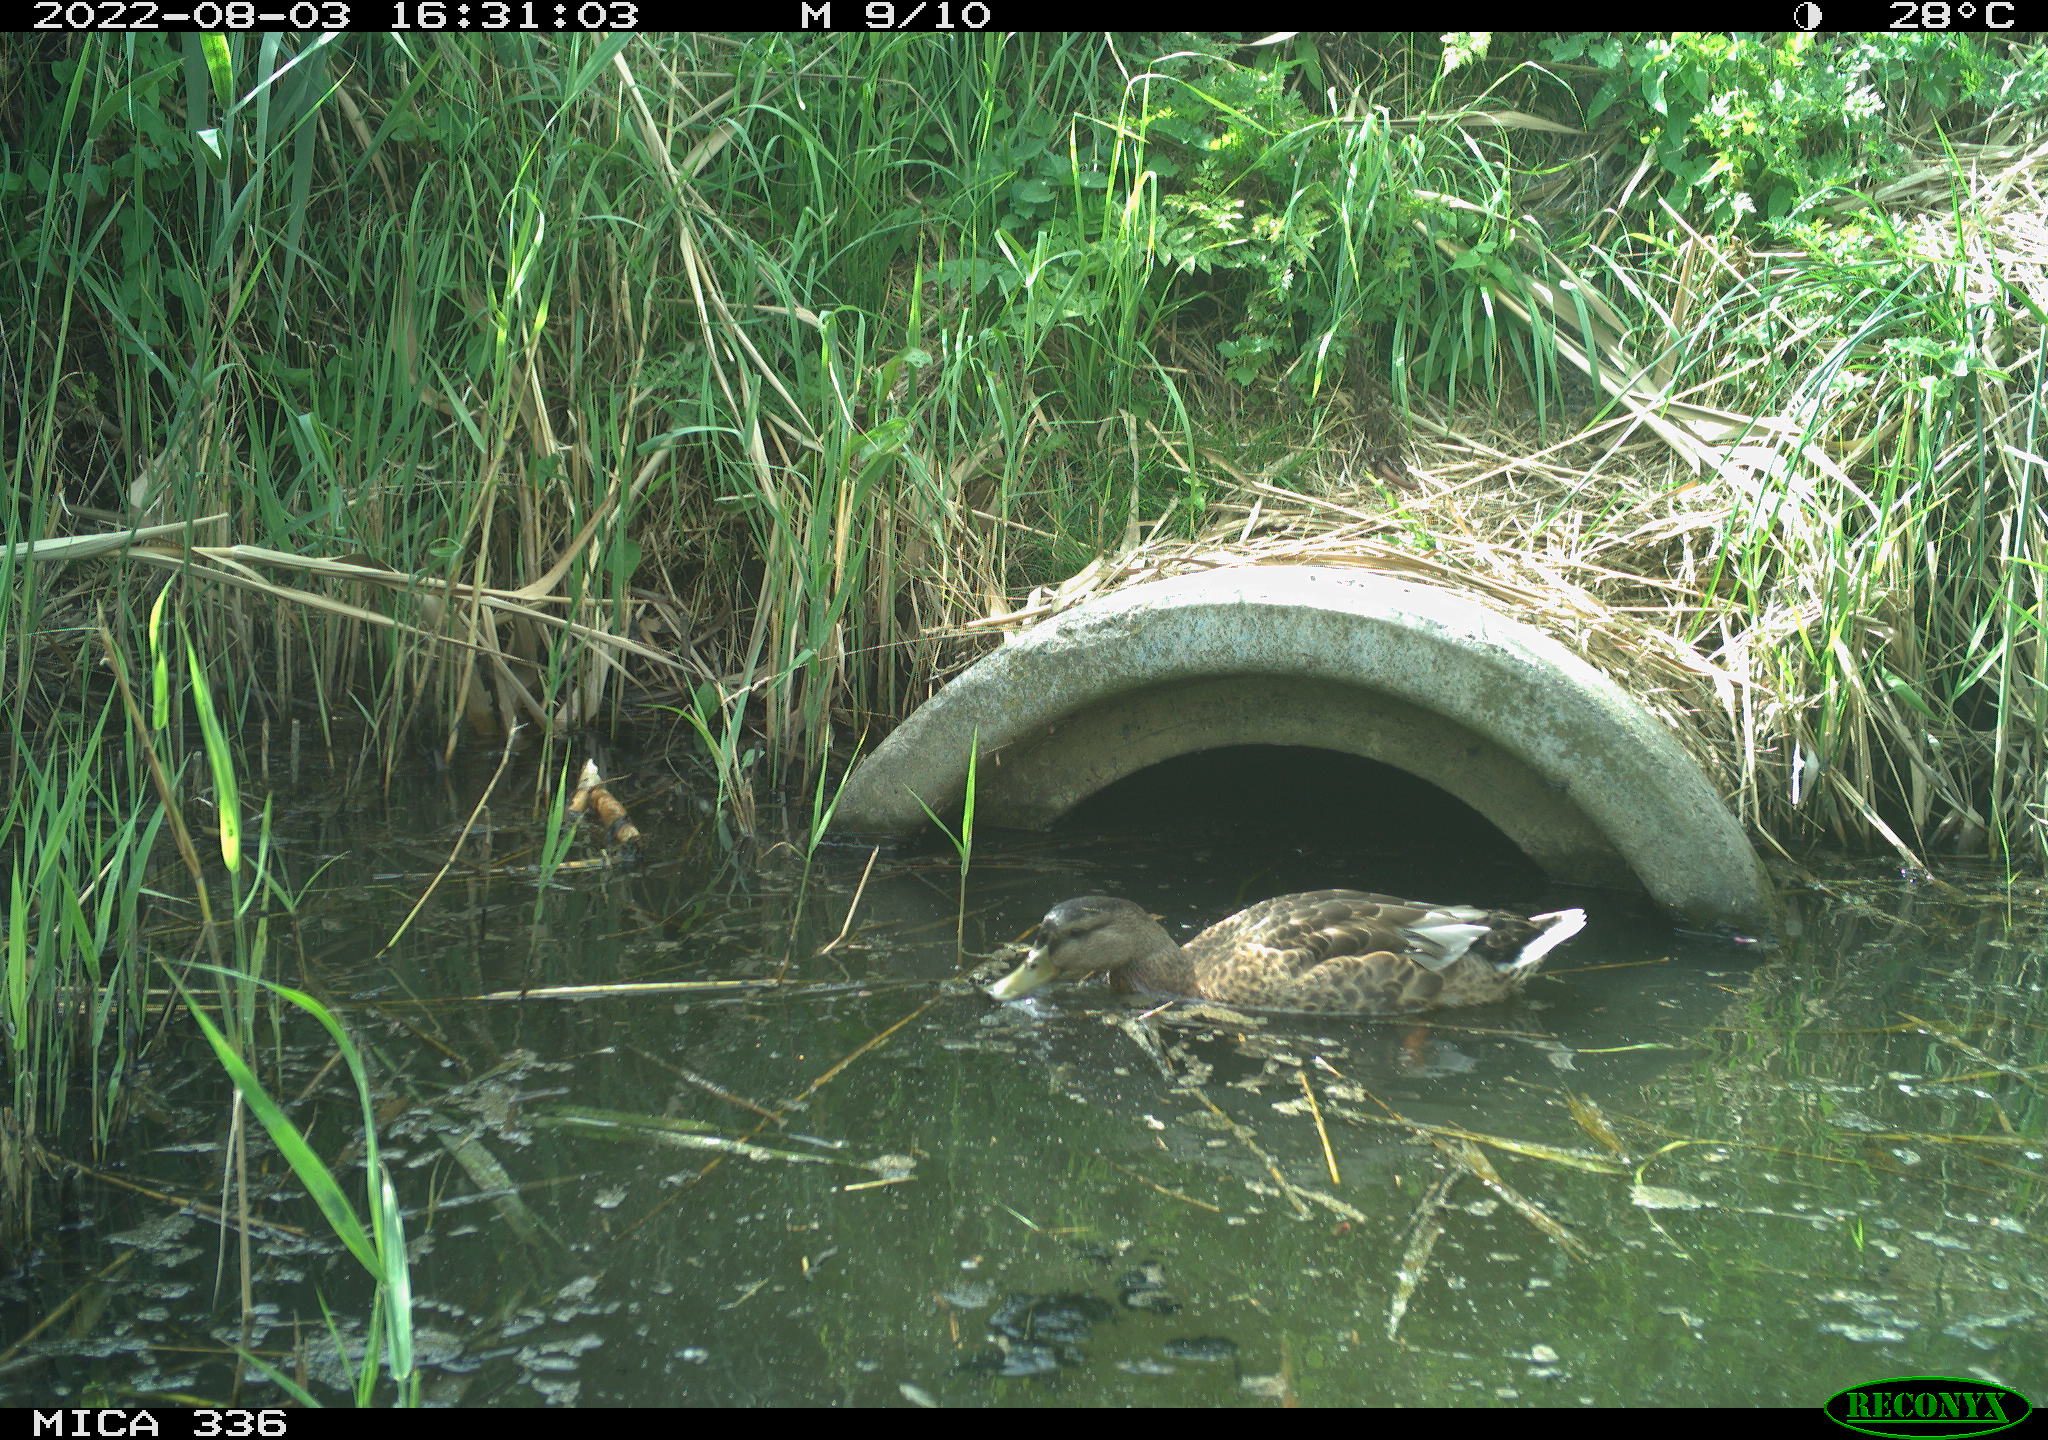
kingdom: Animalia
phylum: Chordata
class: Aves
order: Anseriformes
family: Anatidae
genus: Mareca
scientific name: Mareca strepera
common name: Gadwall
